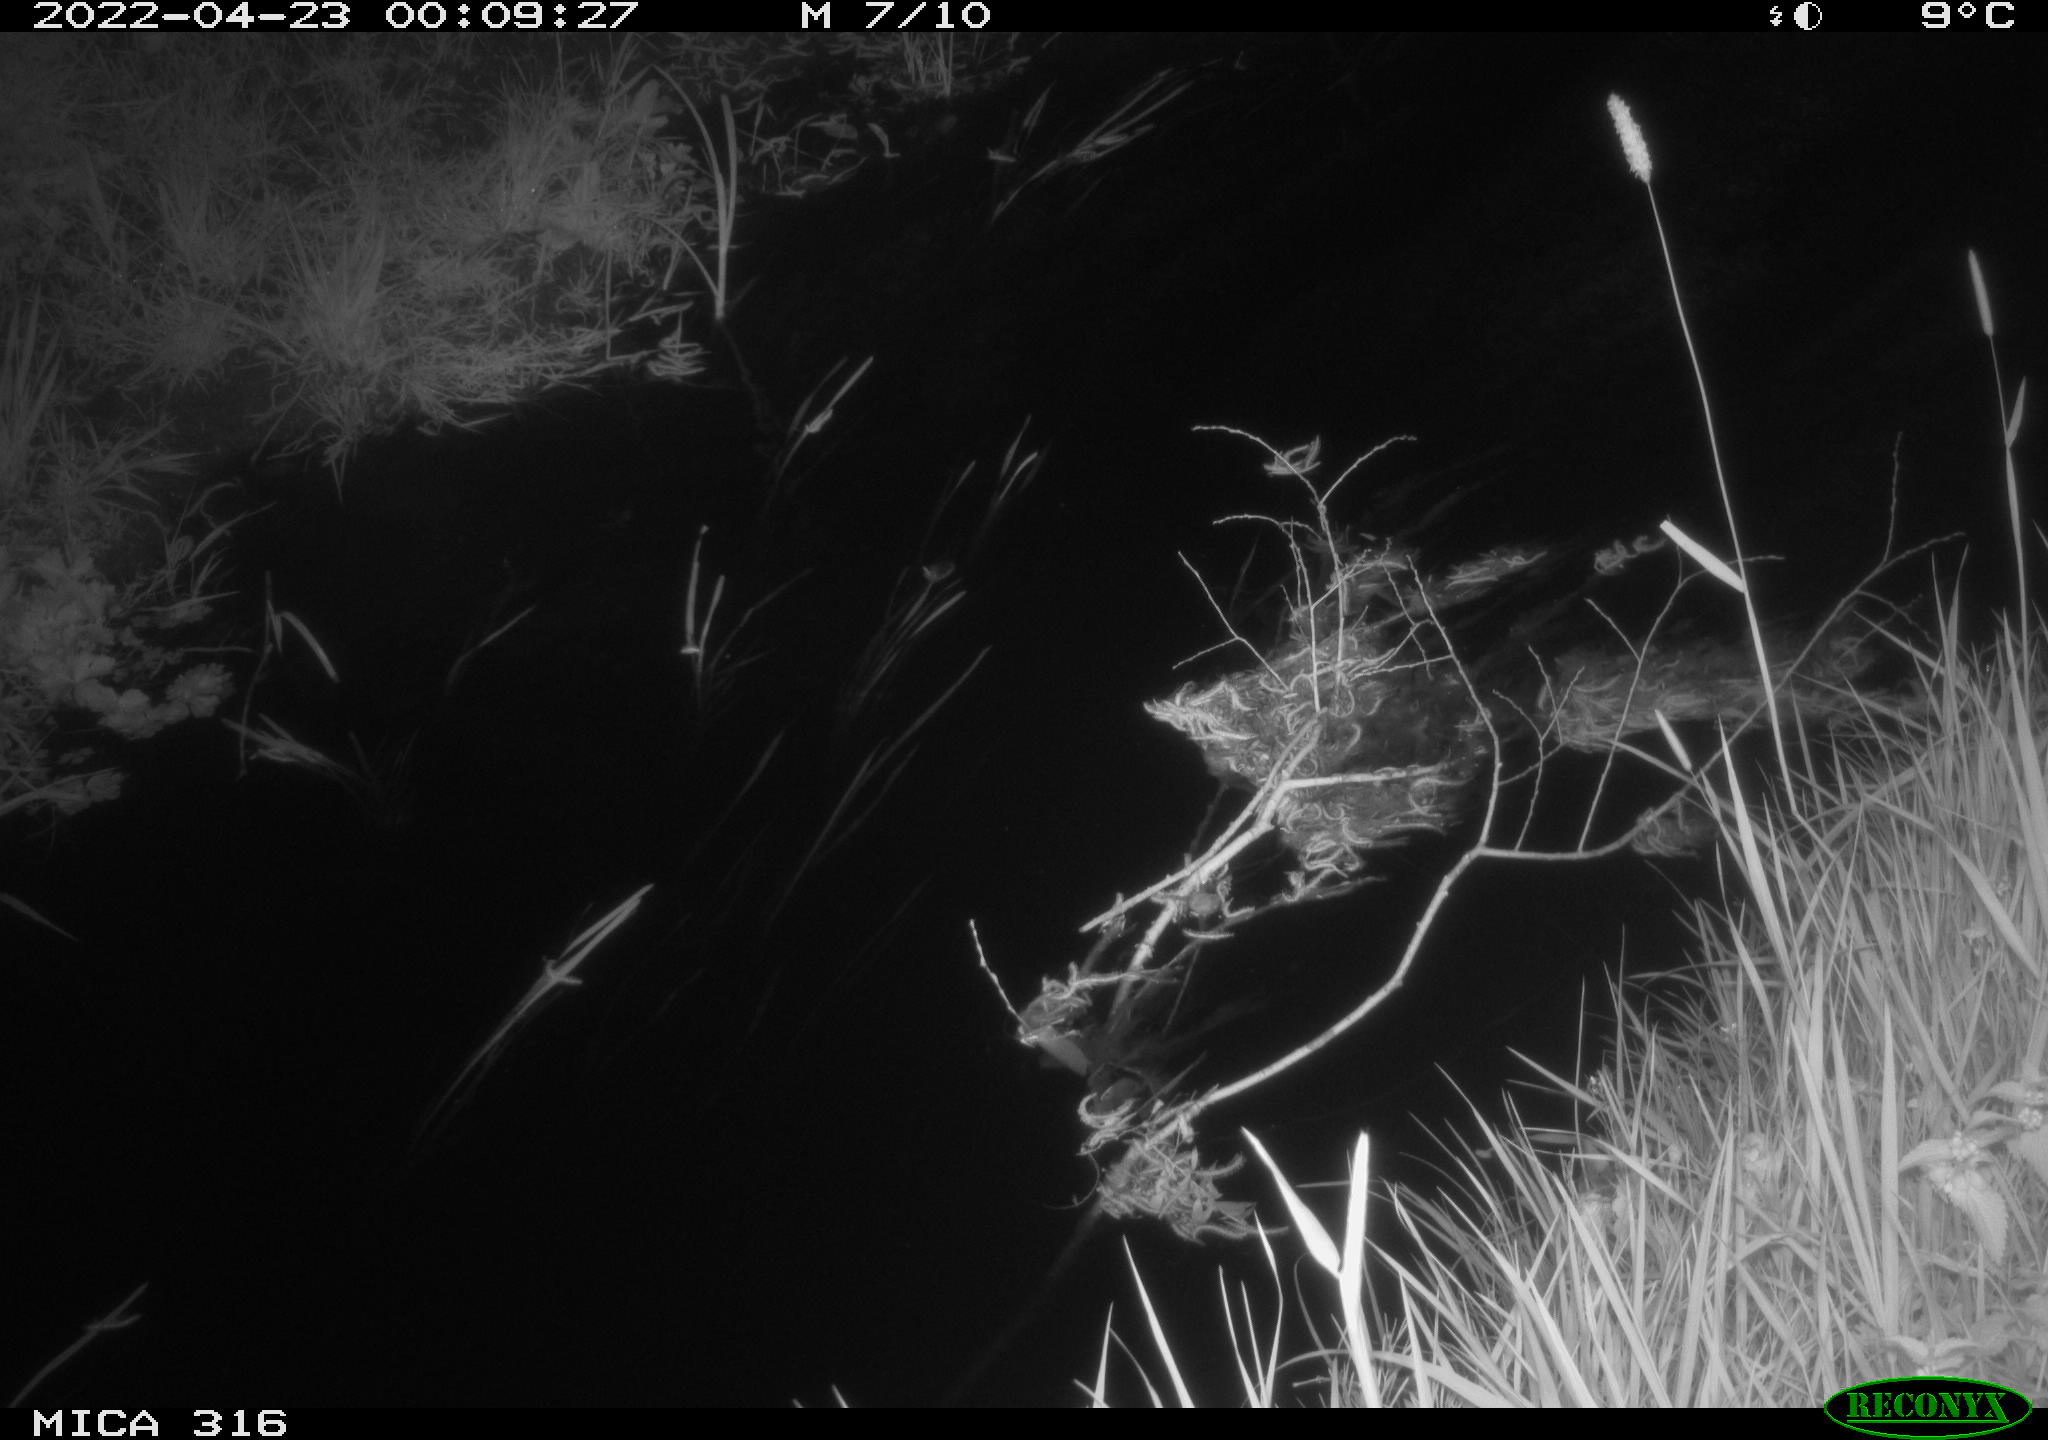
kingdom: Animalia
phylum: Chordata
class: Aves
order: Anseriformes
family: Anatidae
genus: Anas
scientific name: Anas platyrhynchos
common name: Mallard
